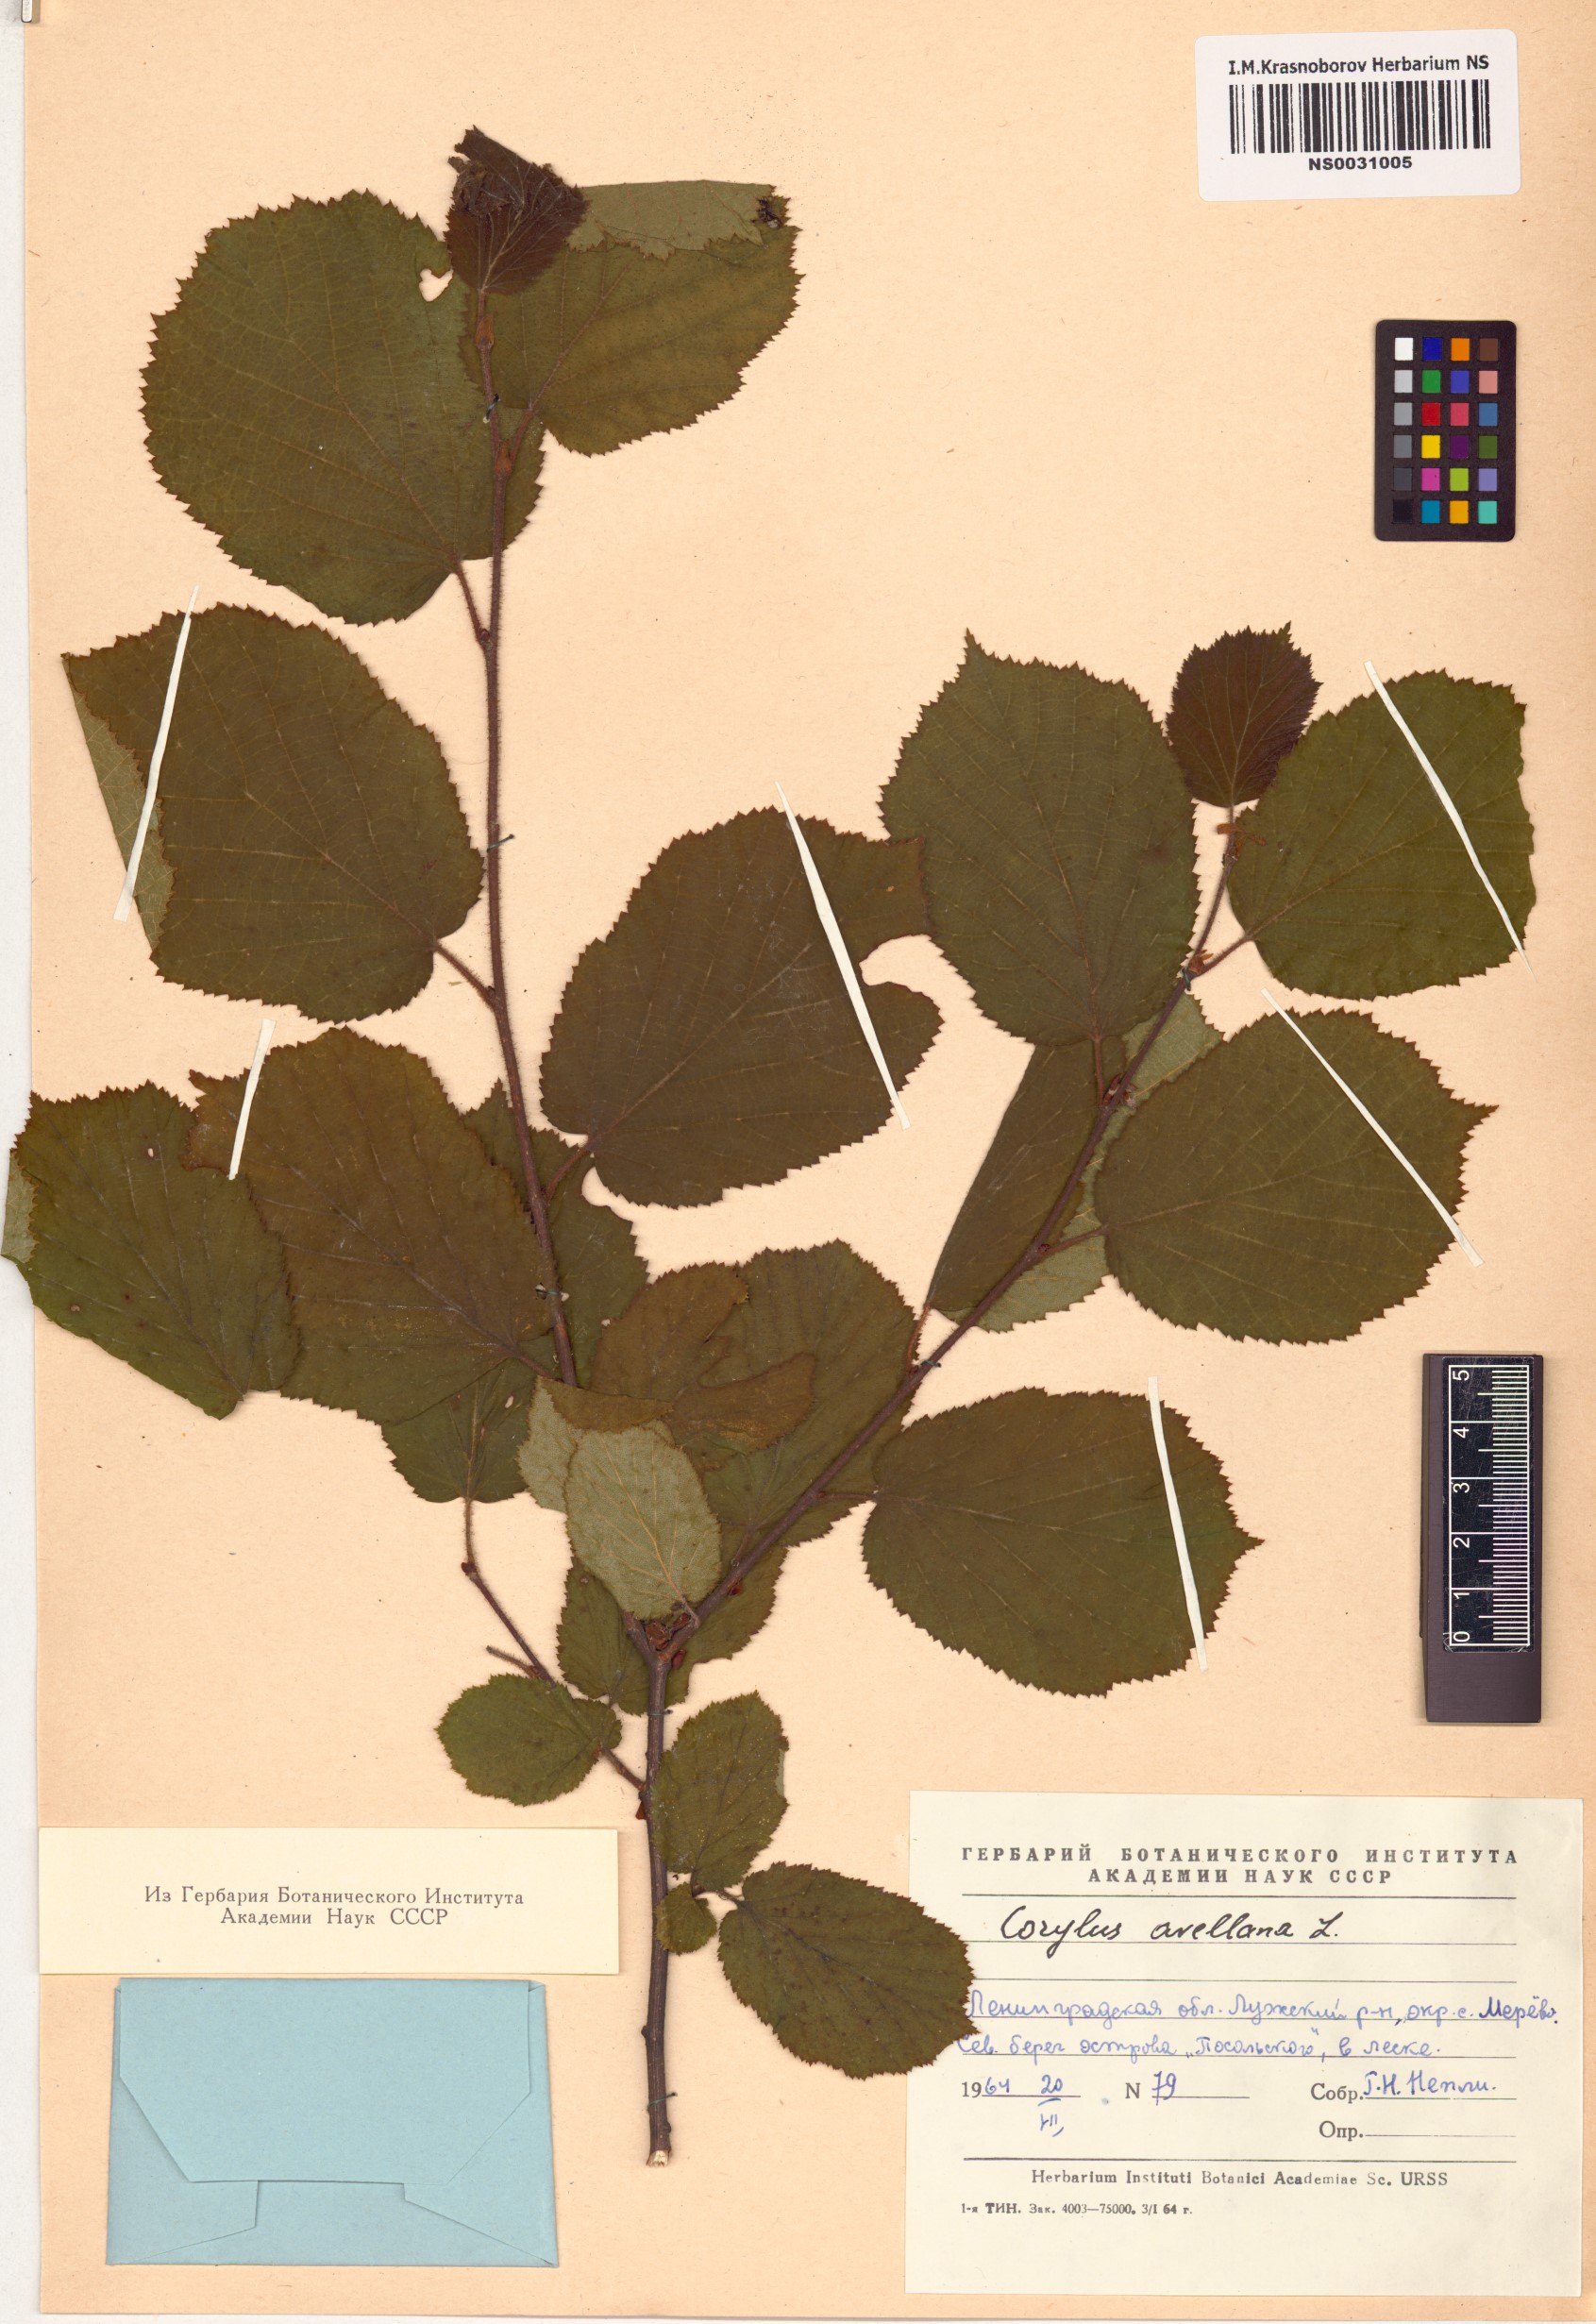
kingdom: Plantae
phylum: Tracheophyta
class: Magnoliopsida
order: Fagales
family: Betulaceae
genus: Corylus
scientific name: Corylus avellana
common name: European hazel
